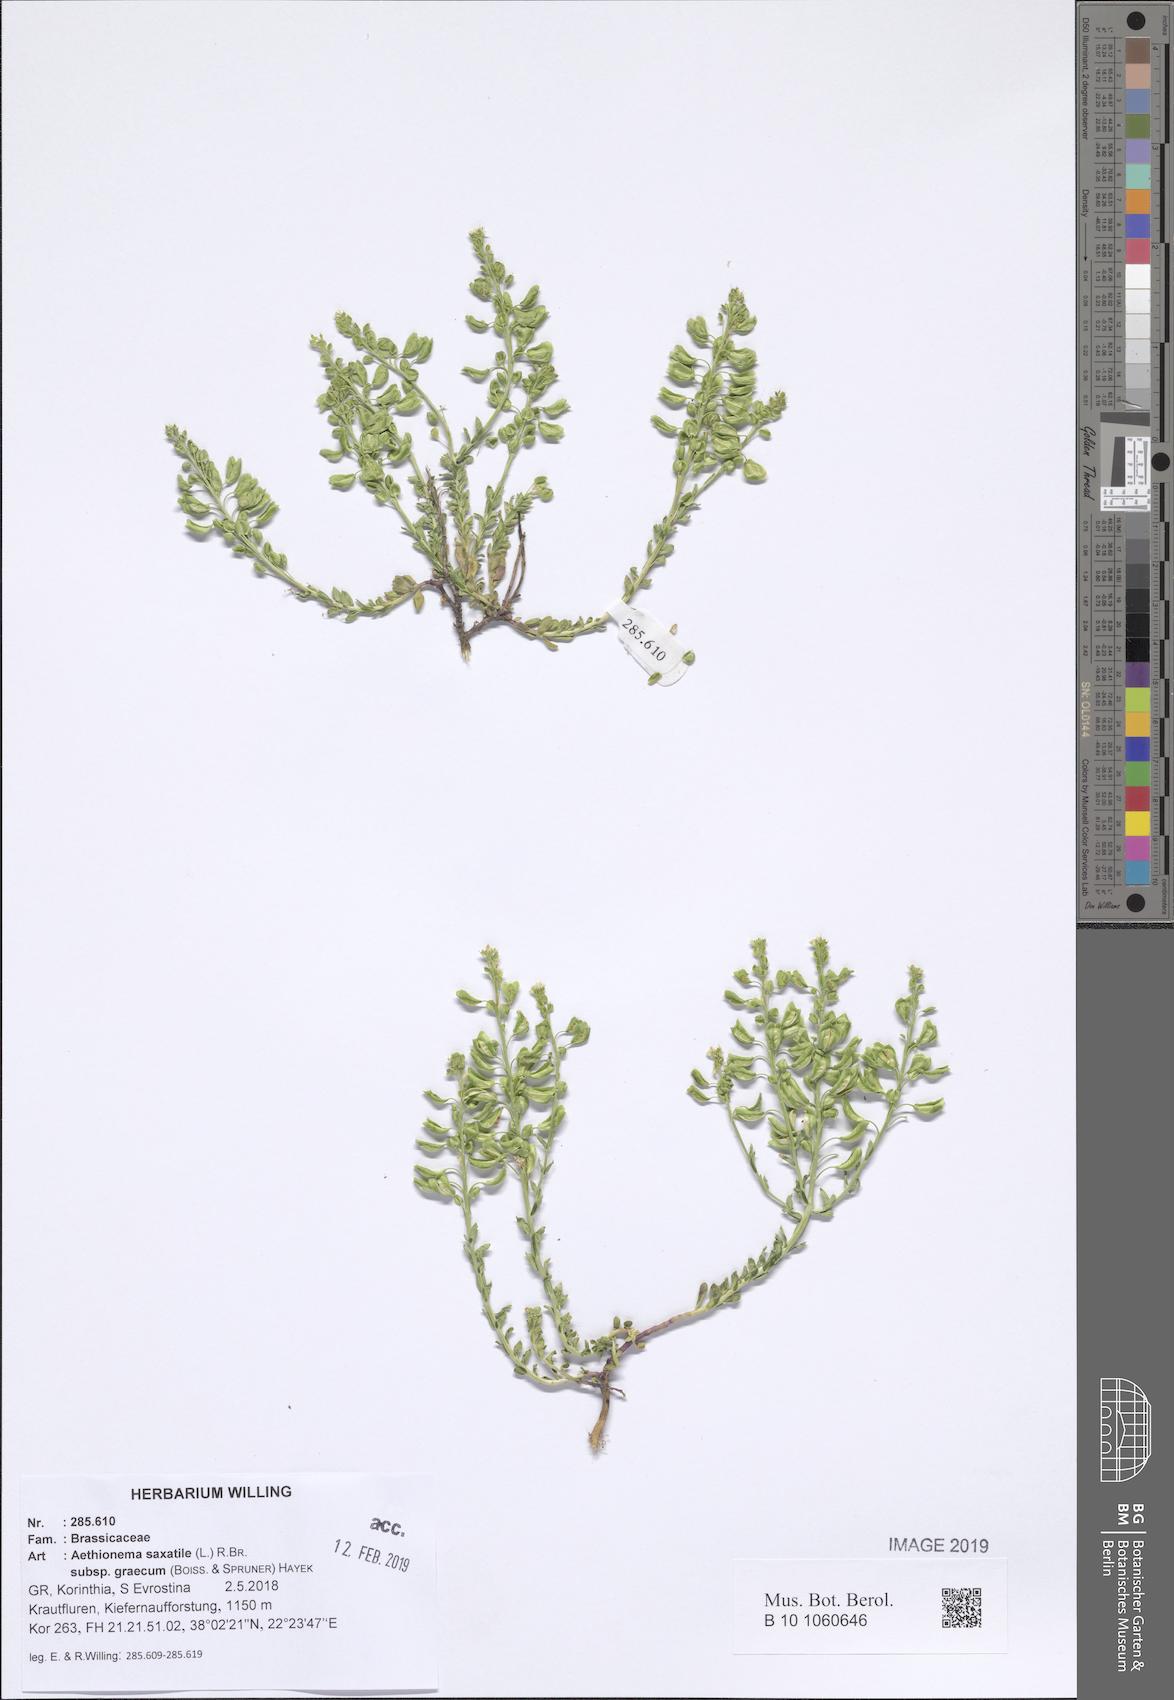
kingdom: Plantae
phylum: Tracheophyta
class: Magnoliopsida
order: Brassicales
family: Brassicaceae
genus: Aethionema
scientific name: Aethionema saxatile
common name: Burnt candytuft
